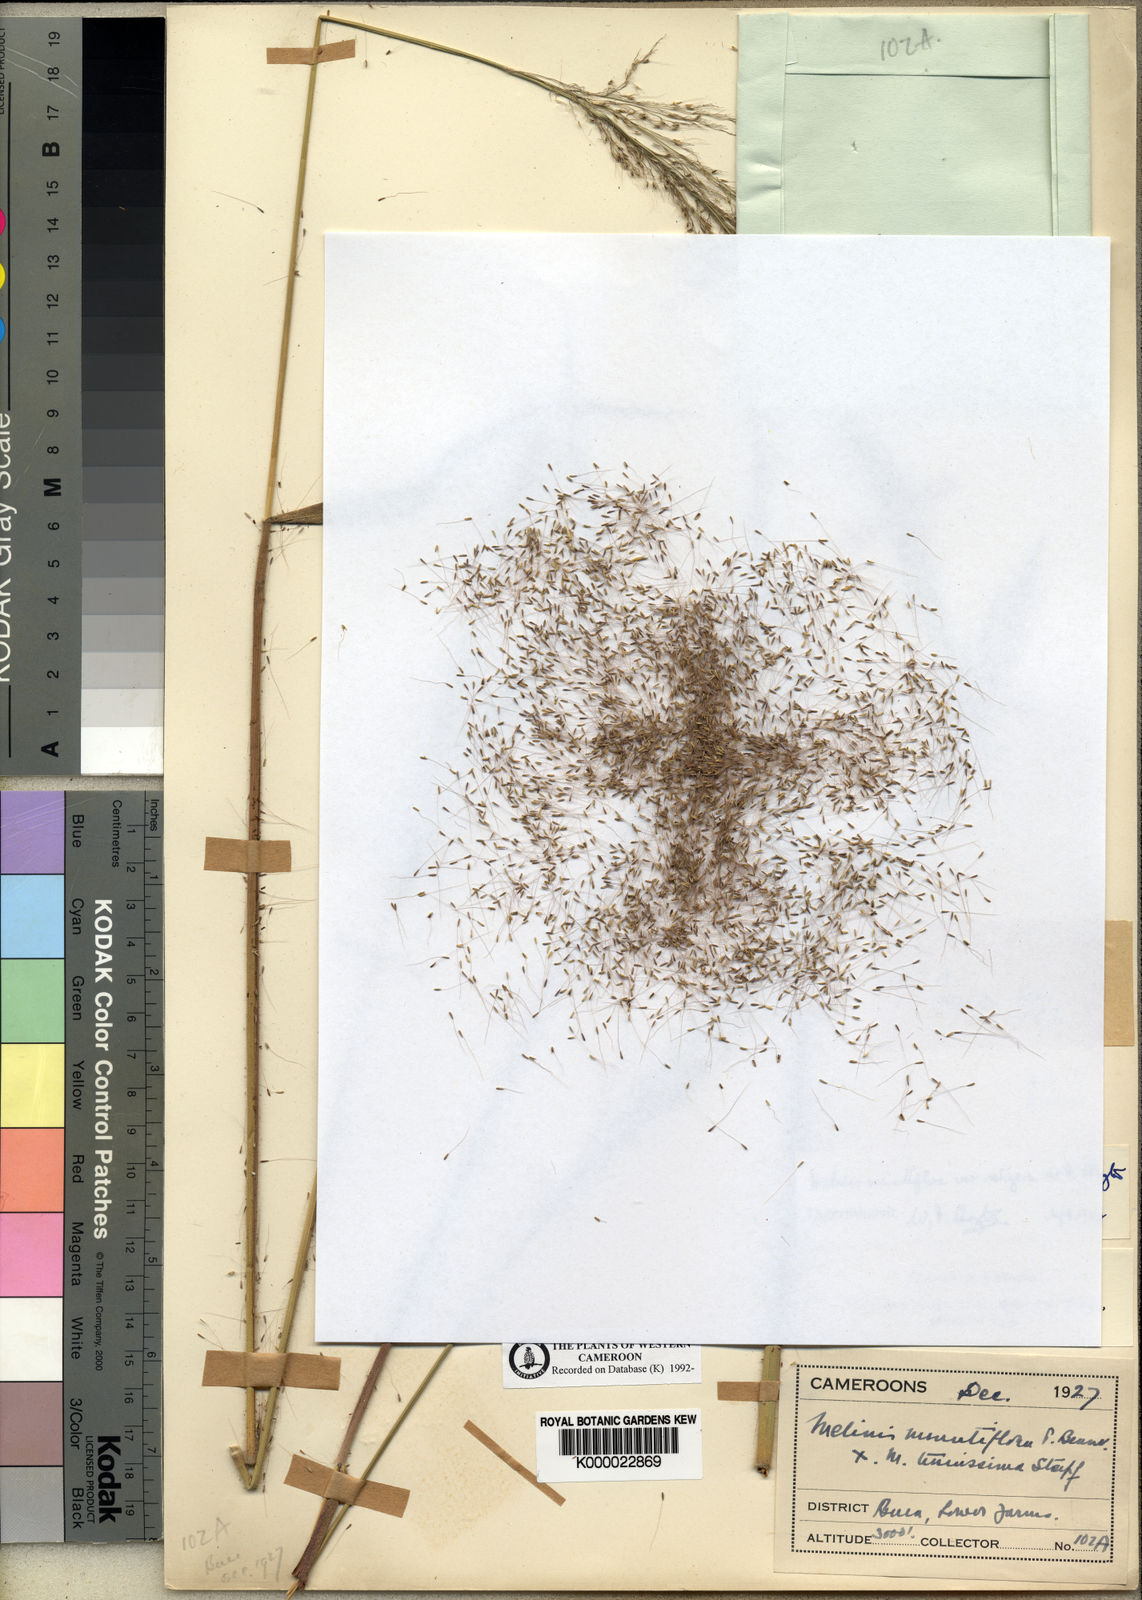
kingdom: Plantae
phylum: Tracheophyta
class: Liliopsida
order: Poales
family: Poaceae
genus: Melinis
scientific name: Melinis minutiflora
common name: Molassesgrass
